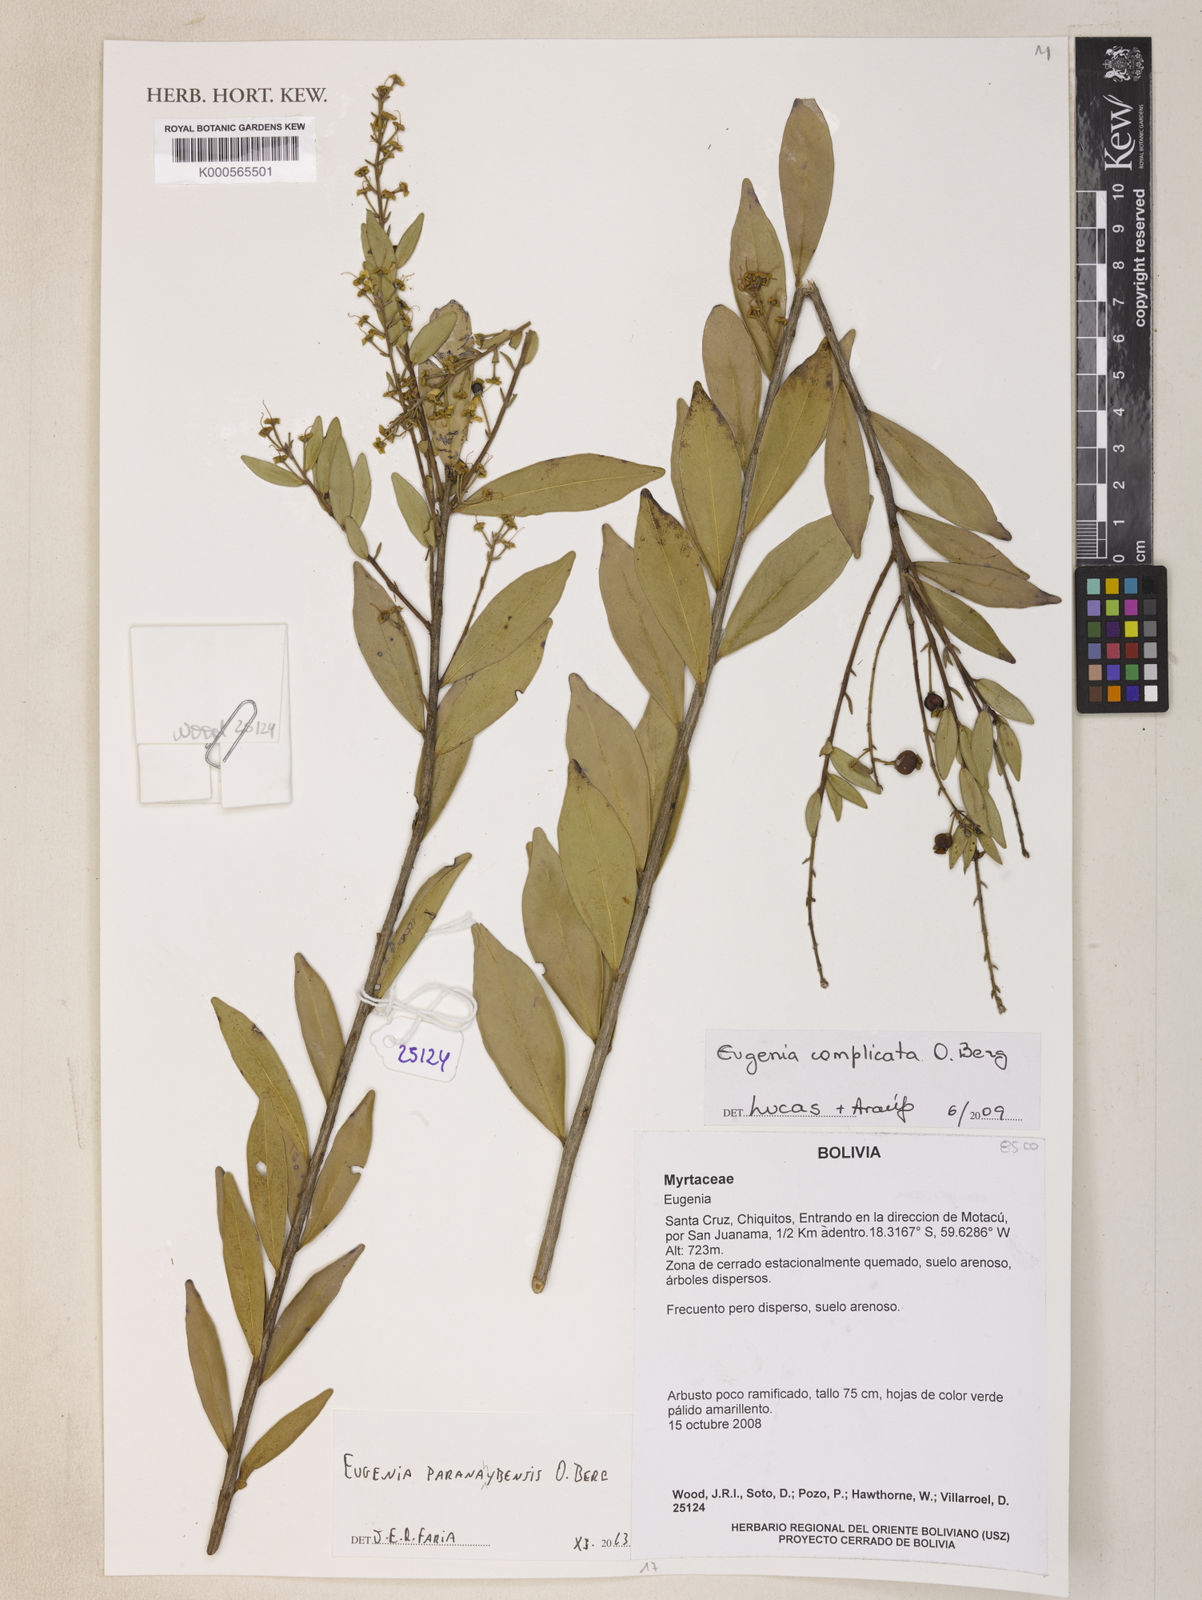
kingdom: Plantae
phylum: Tracheophyta
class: Magnoliopsida
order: Myrtales
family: Myrtaceae
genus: Eugenia
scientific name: Eugenia paranahybensis
